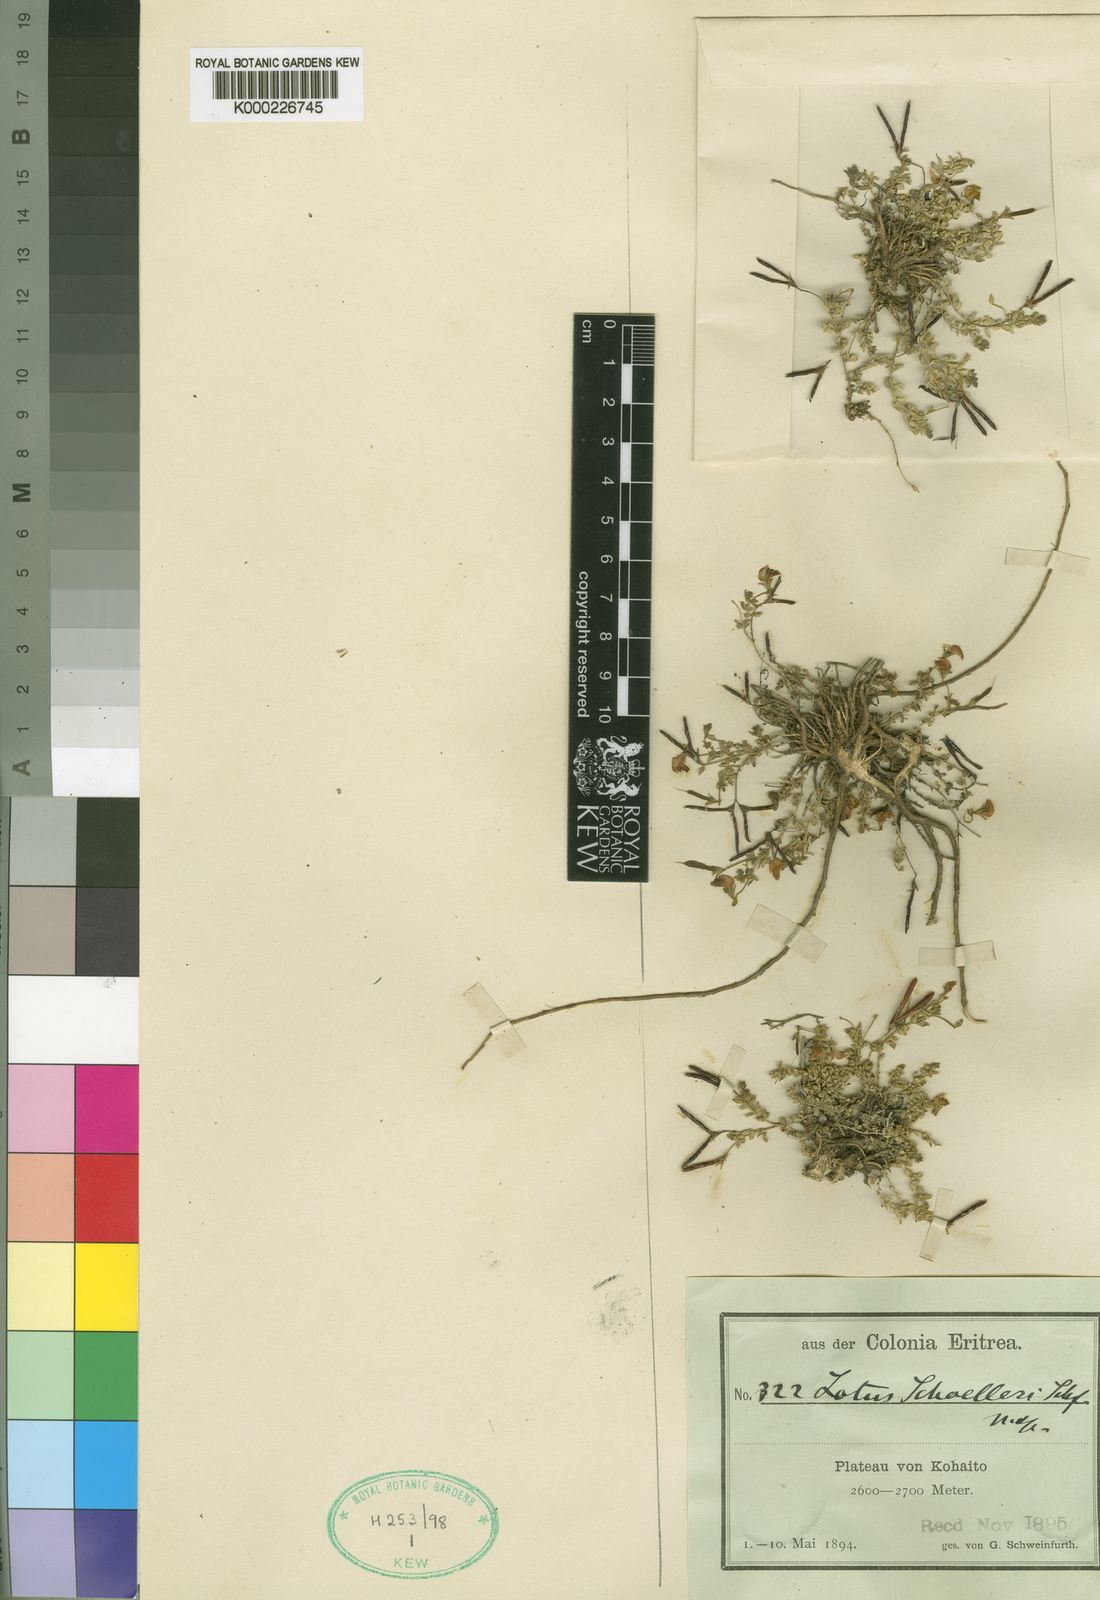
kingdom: Plantae
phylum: Tracheophyta
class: Magnoliopsida
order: Fabales
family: Fabaceae
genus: Lotus
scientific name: Lotus schoelleri
